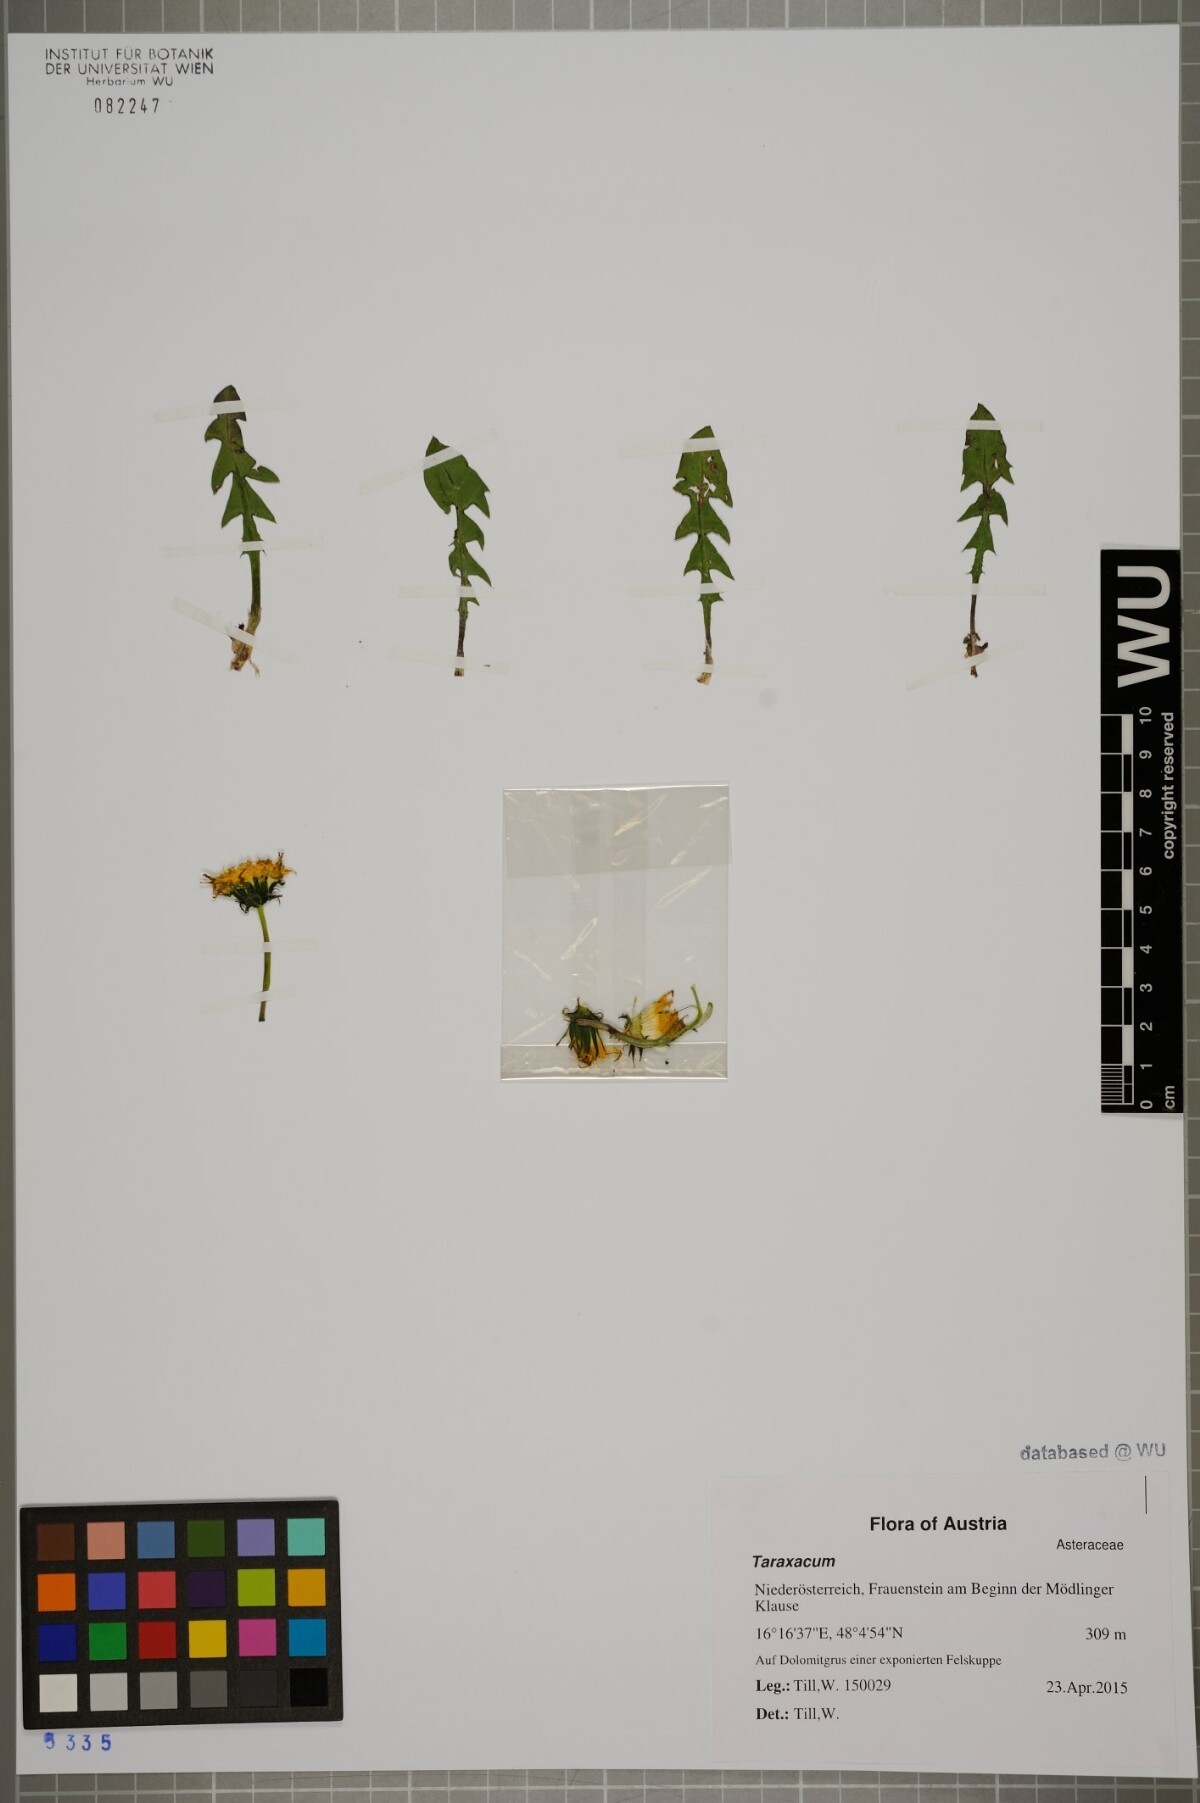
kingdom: Plantae
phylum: Tracheophyta
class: Magnoliopsida
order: Asterales
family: Asteraceae
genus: Taraxacum
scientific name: Taraxacum
